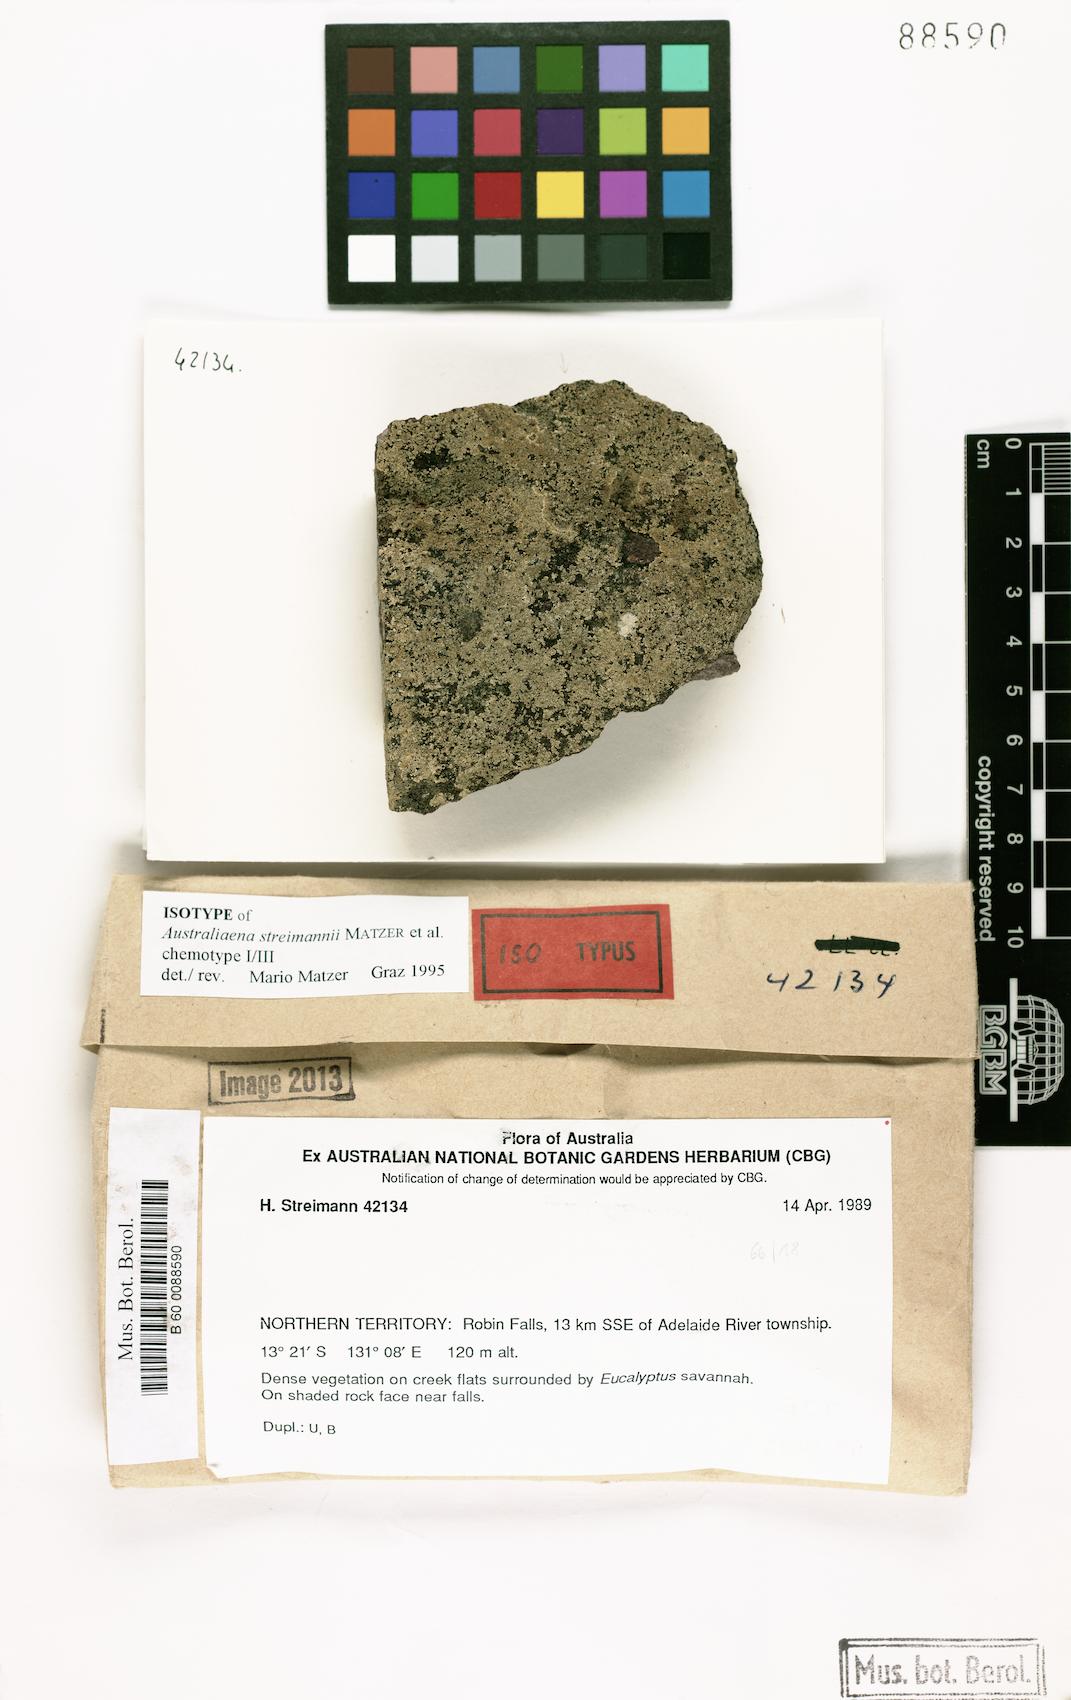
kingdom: Fungi
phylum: Ascomycota
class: Lecanoromycetes
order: Caliciales
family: Caliciaceae
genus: Australiaena
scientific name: Australiaena streimannii
